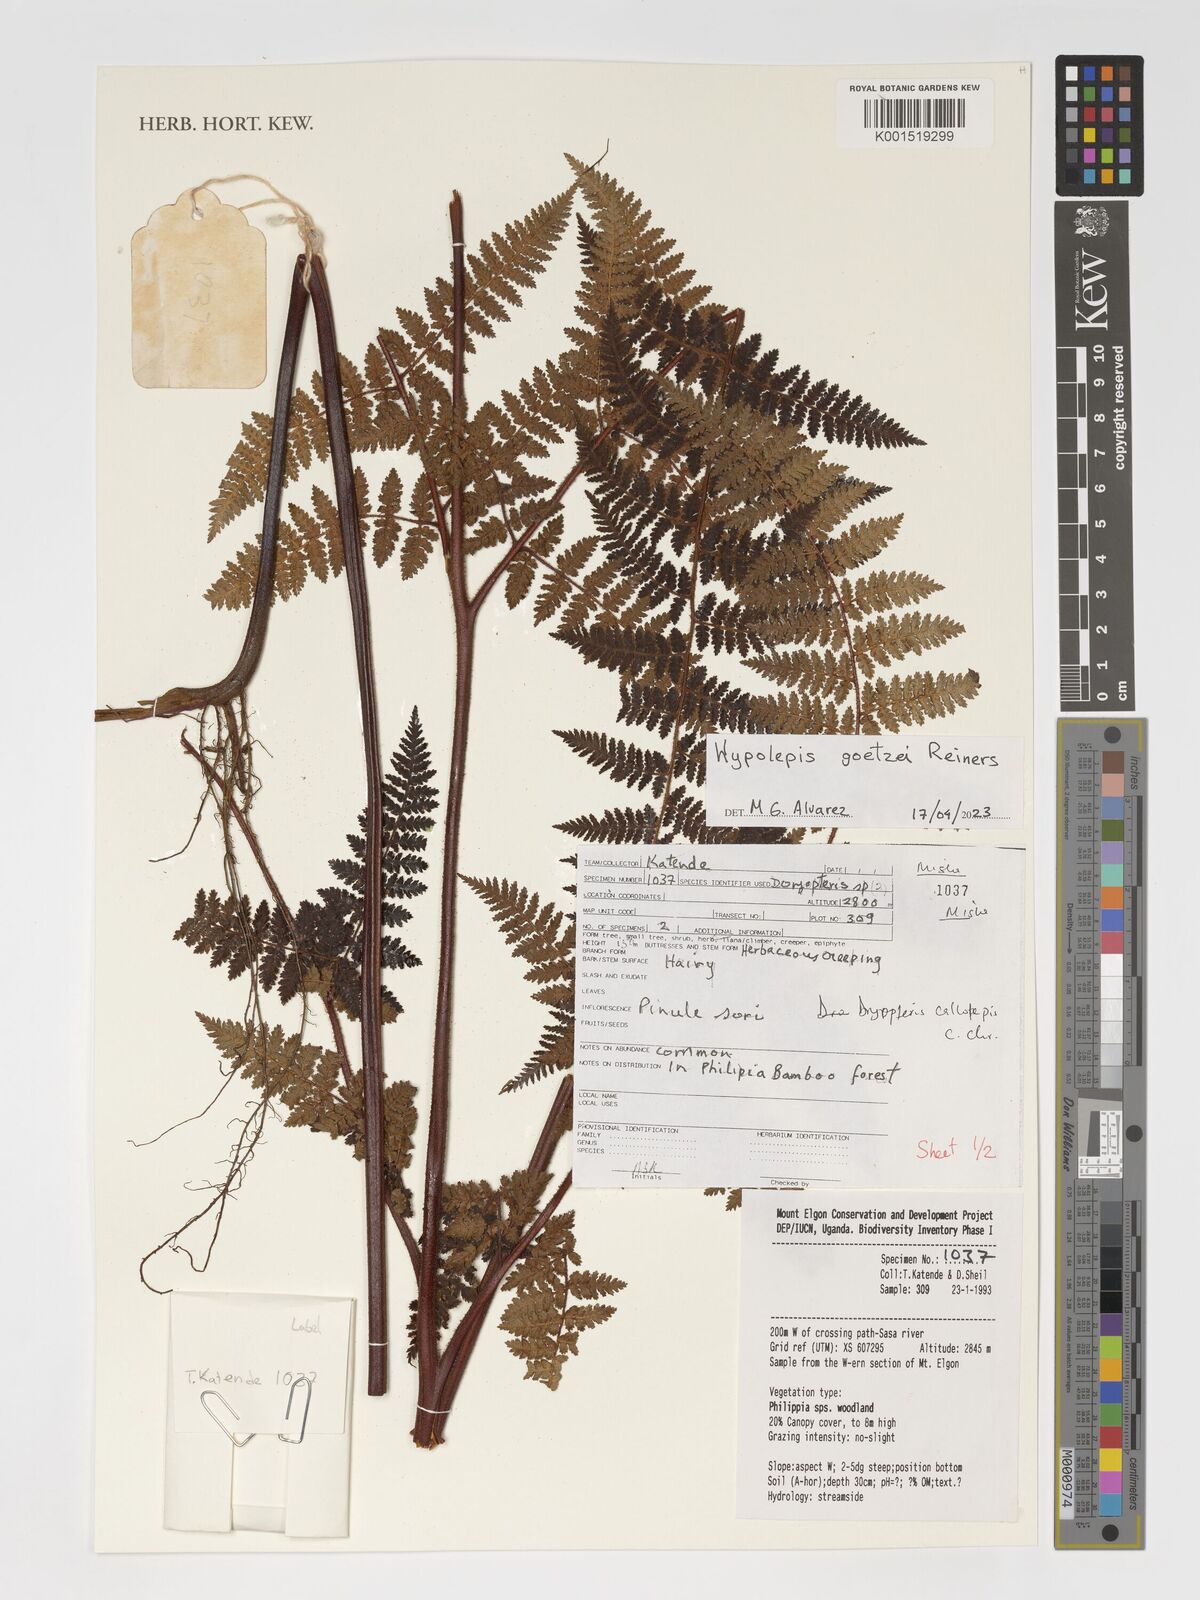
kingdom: Plantae
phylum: Tracheophyta
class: Polypodiopsida
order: Polypodiales
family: Dennstaedtiaceae
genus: Hypolepis
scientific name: Hypolepis rugosula
